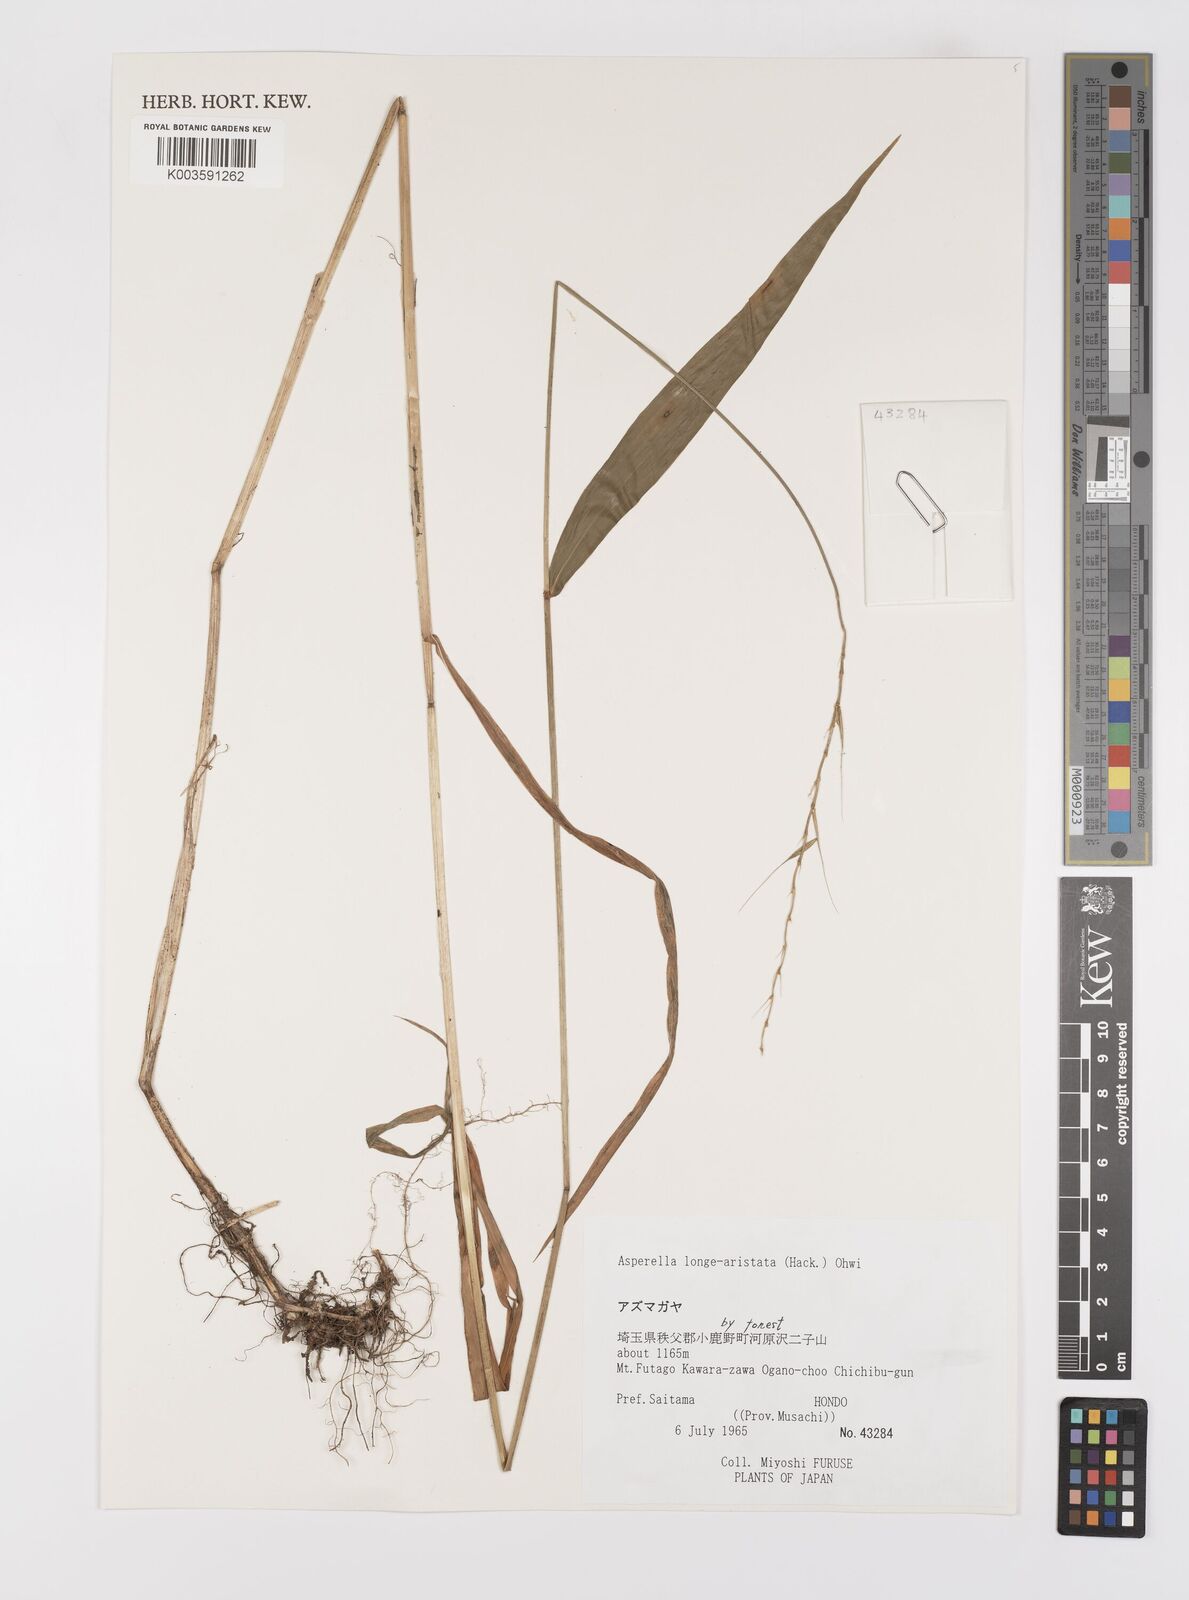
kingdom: Plantae
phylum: Tracheophyta
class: Liliopsida
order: Poales
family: Poaceae
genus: Leymus
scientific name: Leymus duthiei
